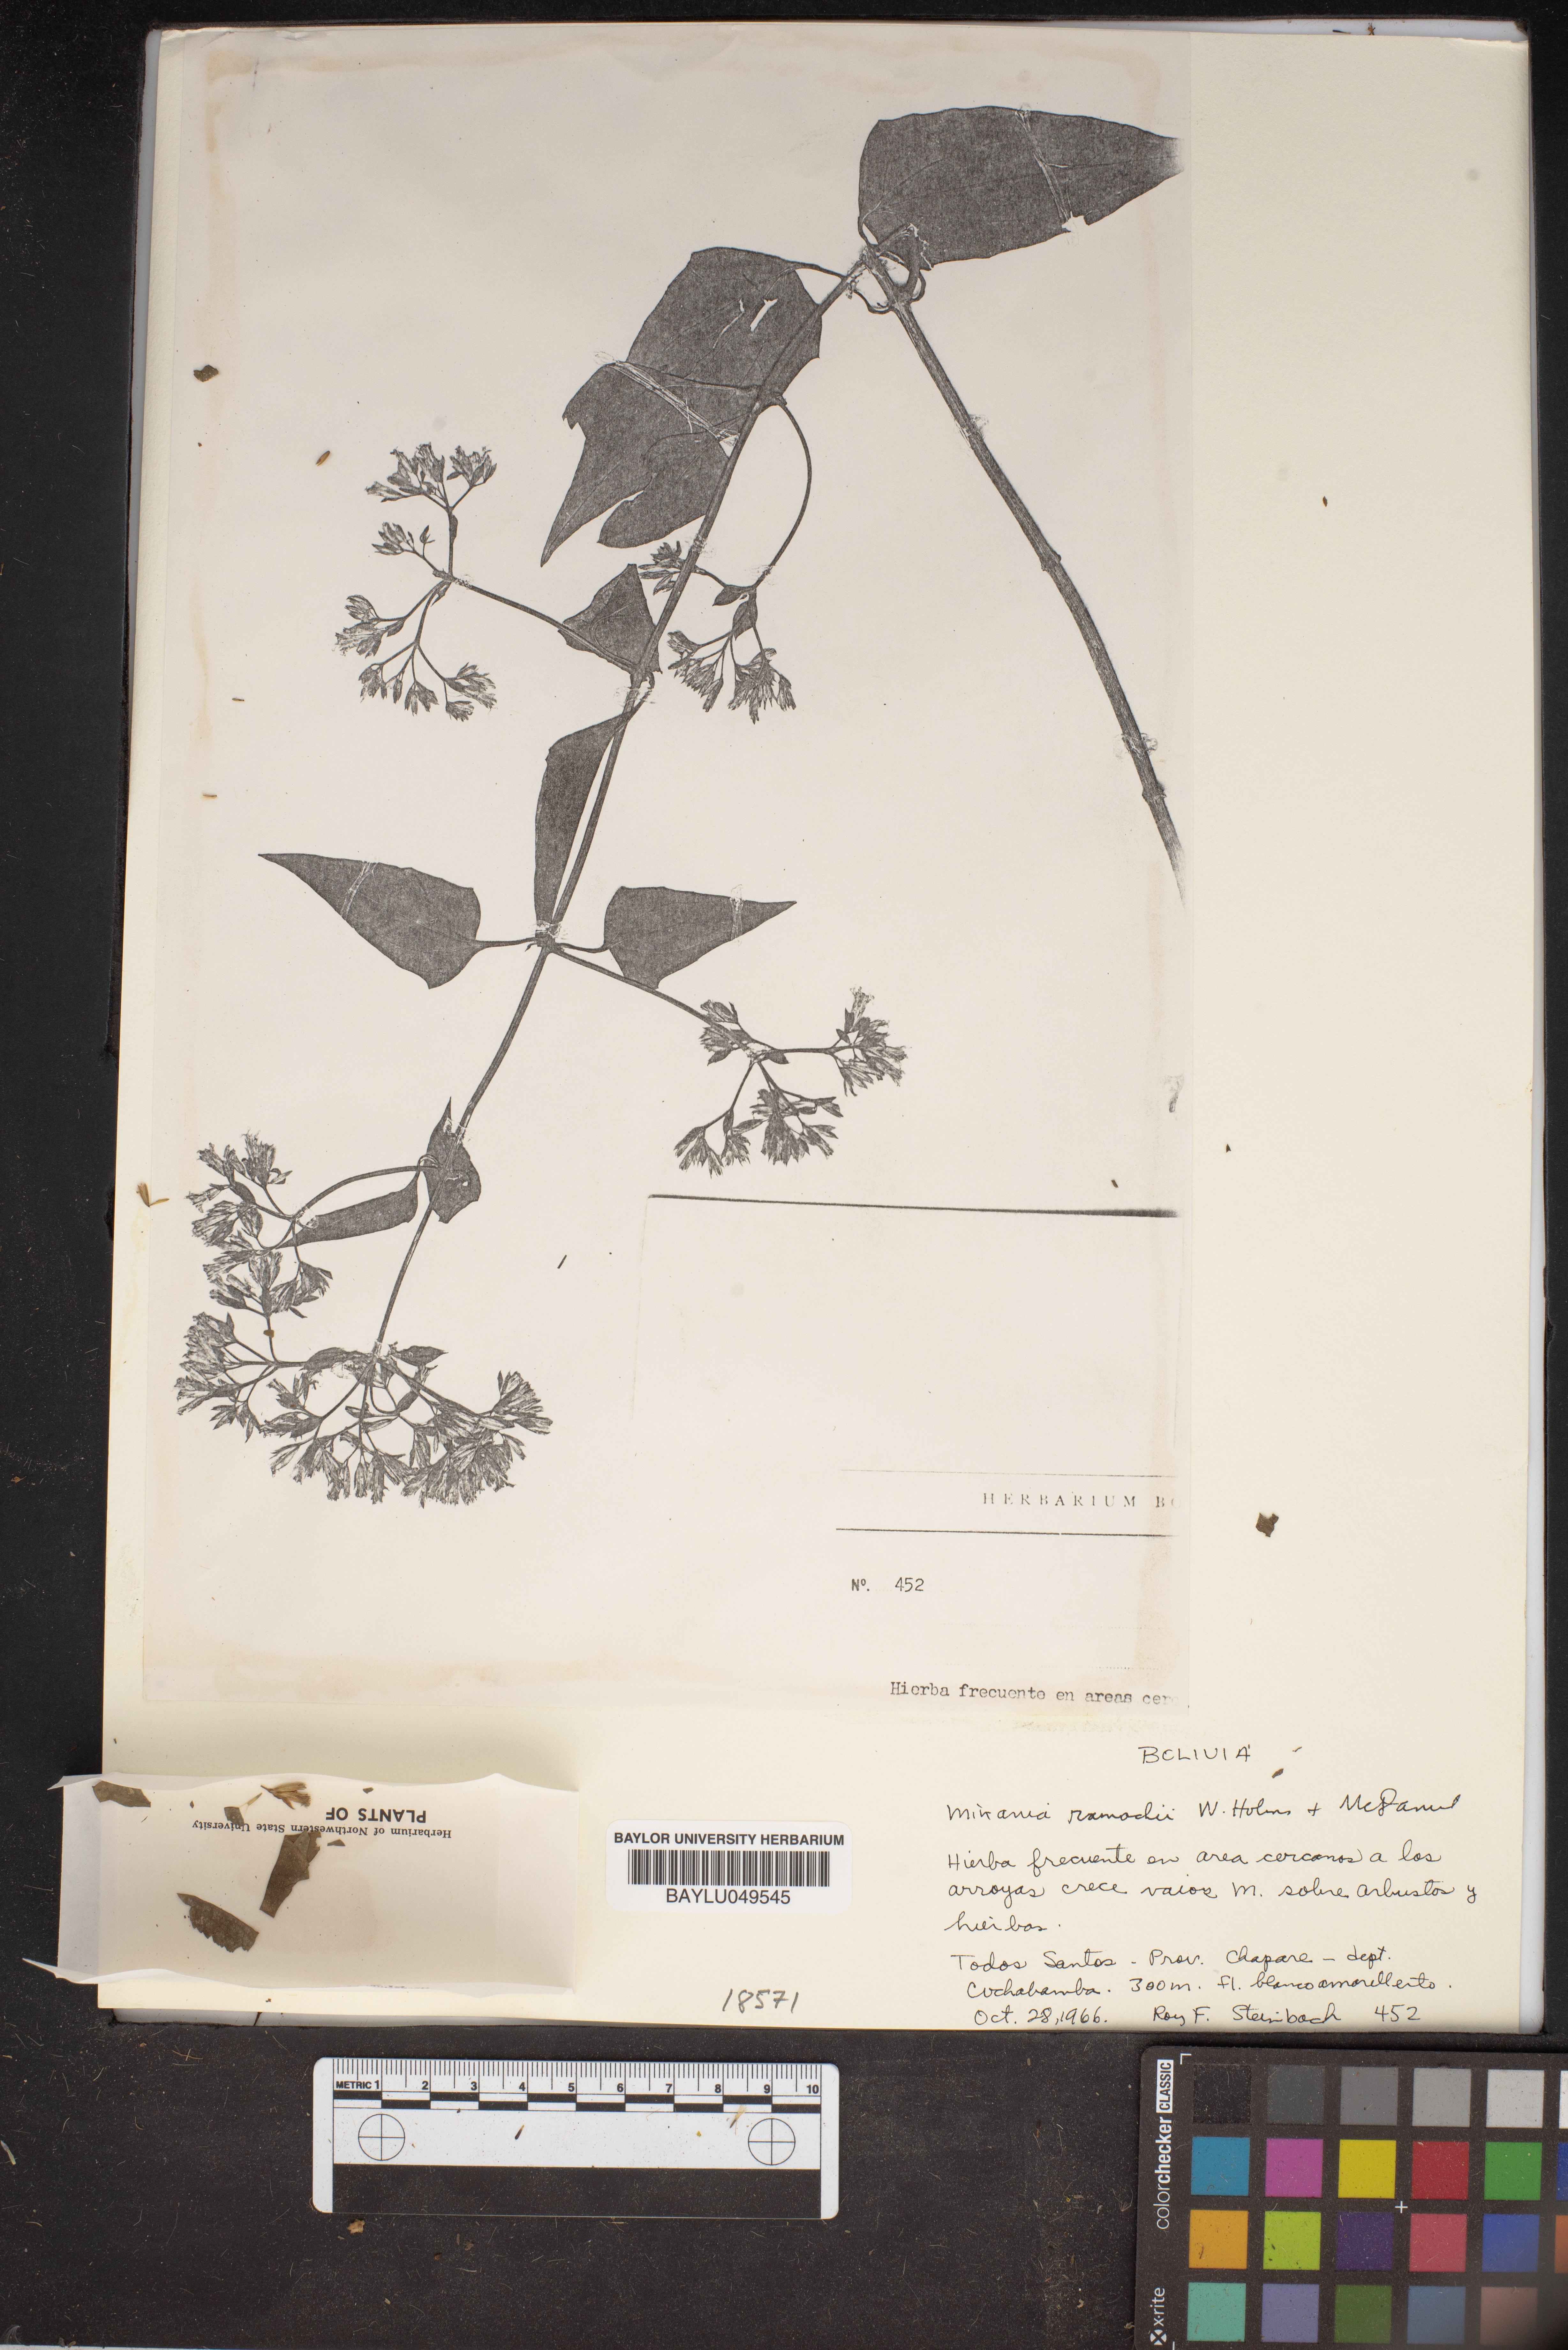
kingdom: Plantae
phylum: Tracheophyta
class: Magnoliopsida
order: Asterales
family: Asteraceae
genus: Mikania
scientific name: Mikania rimachii
